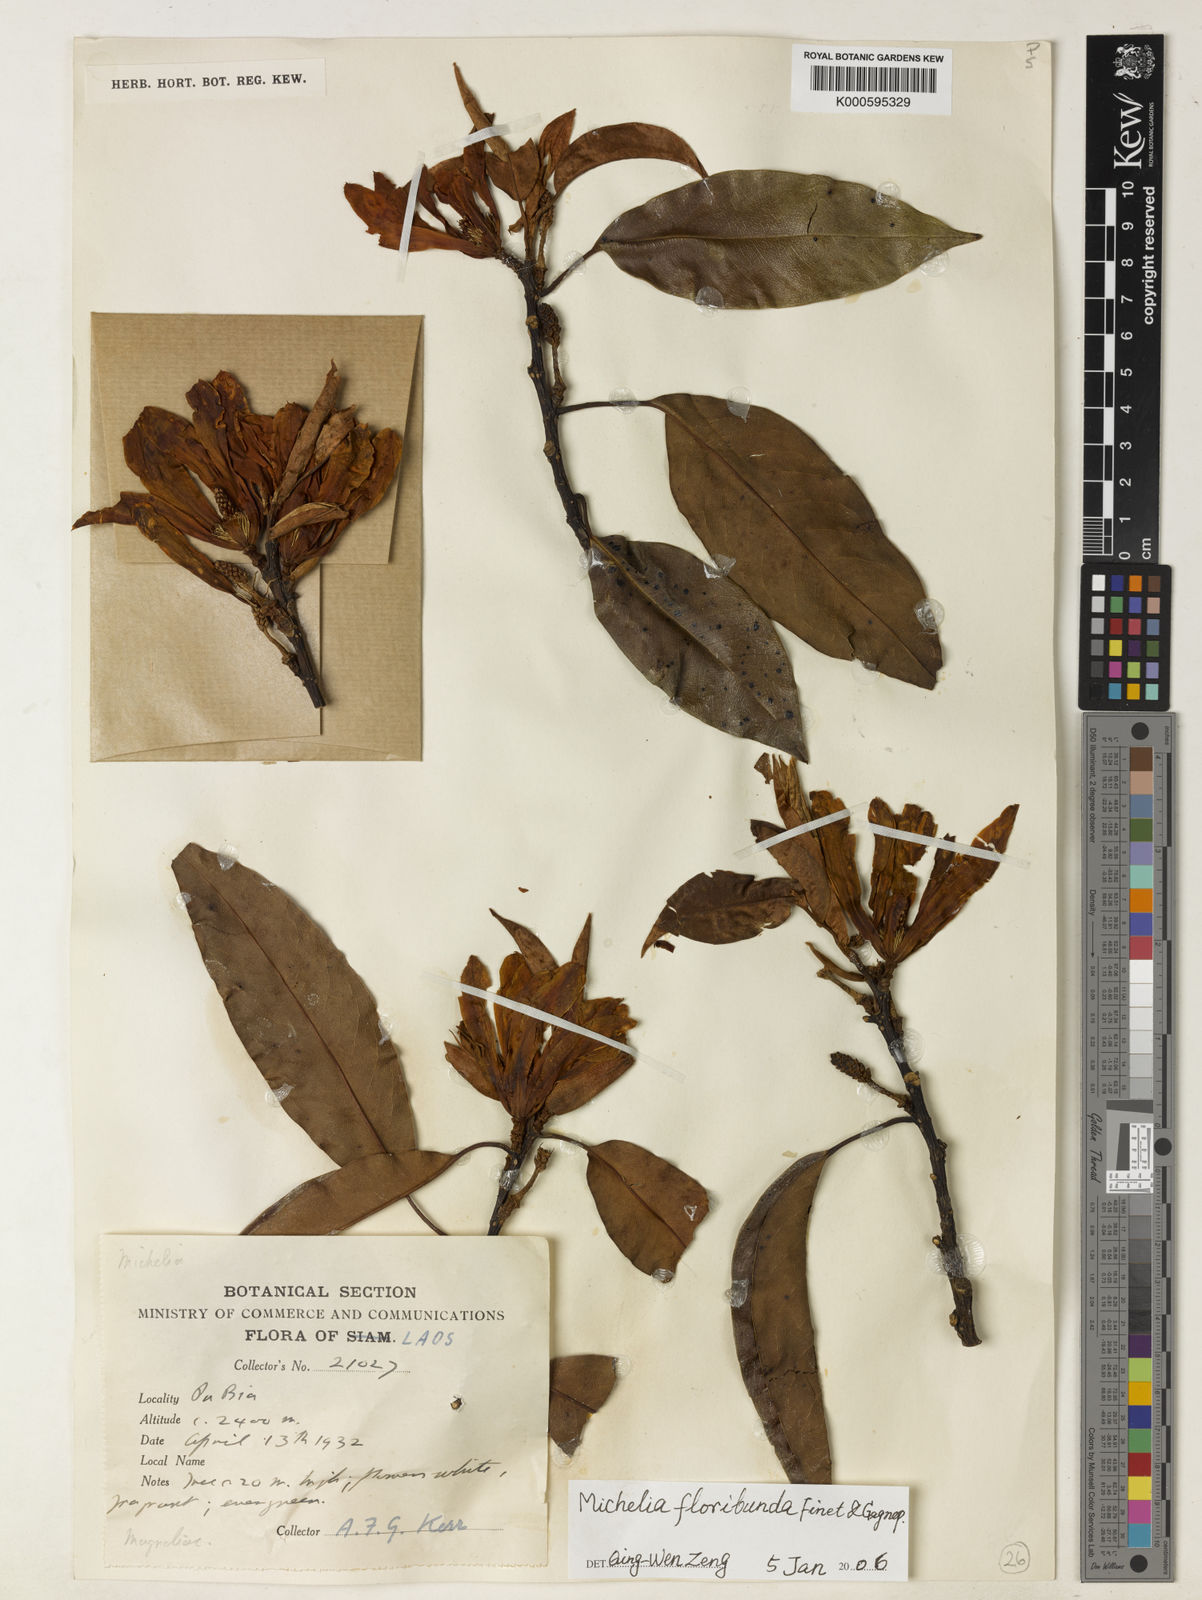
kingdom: Plantae
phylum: Tracheophyta
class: Magnoliopsida
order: Magnoliales
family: Magnoliaceae
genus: Magnolia
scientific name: Magnolia floribunda
